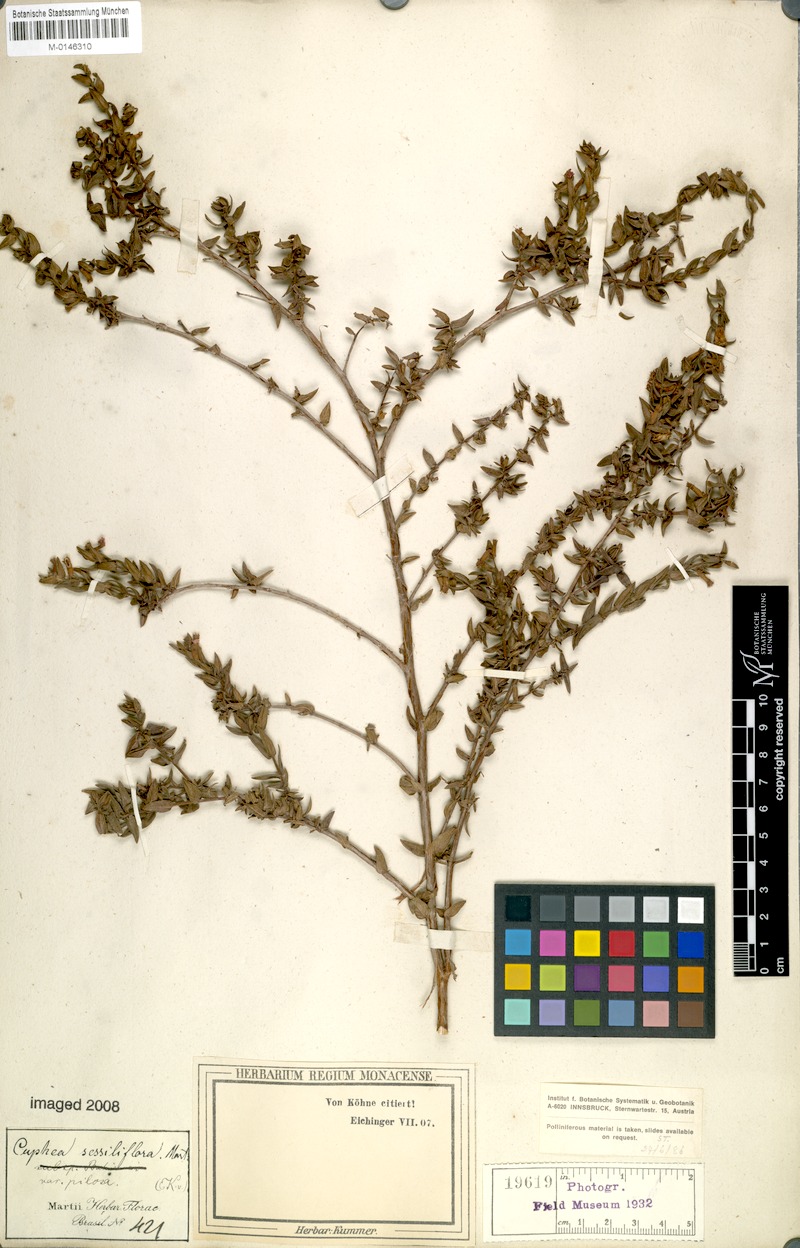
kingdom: Plantae
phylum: Tracheophyta
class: Magnoliopsida
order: Myrtales
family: Lythraceae
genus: Cuphea
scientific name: Cuphea sessilifolia
